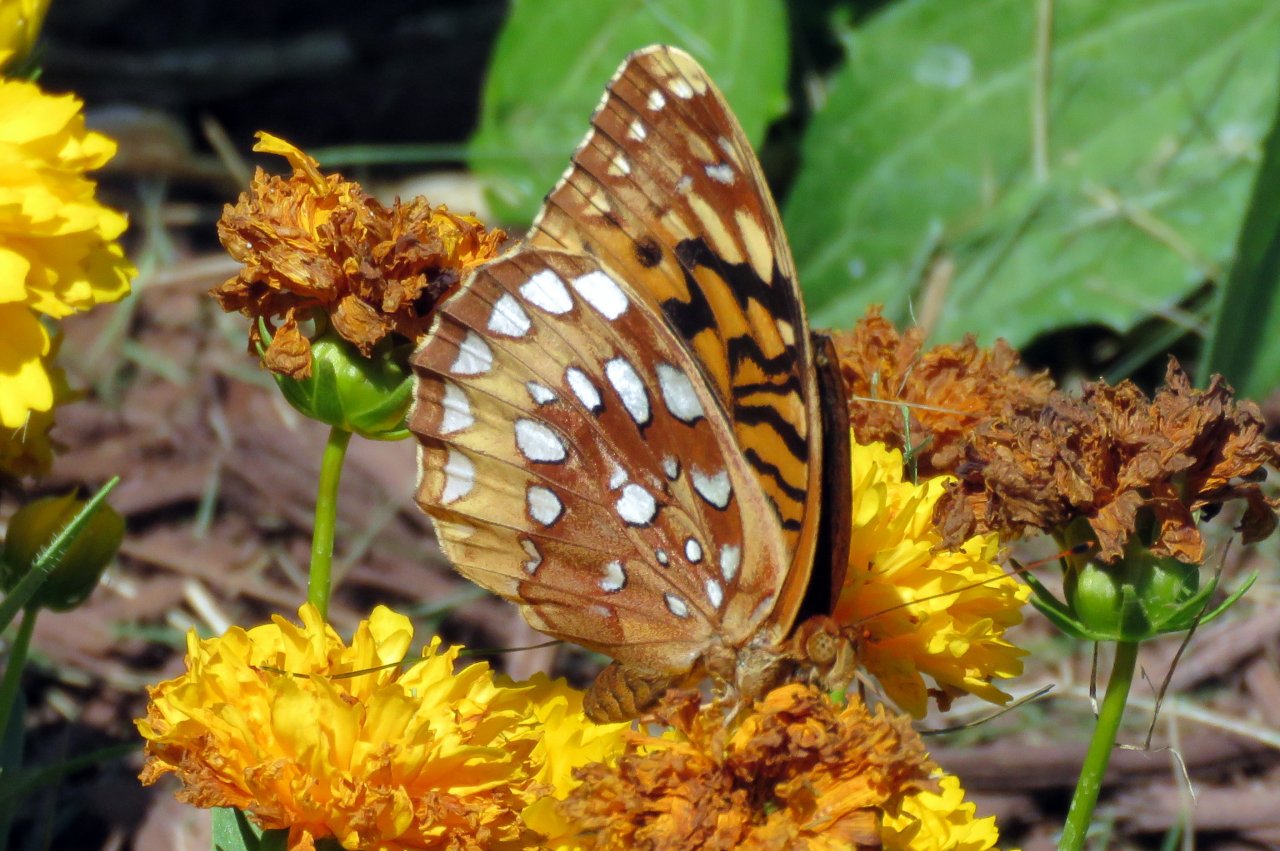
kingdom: Animalia
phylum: Arthropoda
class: Insecta
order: Lepidoptera
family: Nymphalidae
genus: Speyeria
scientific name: Speyeria cybele
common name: Great Spangled Fritillary
